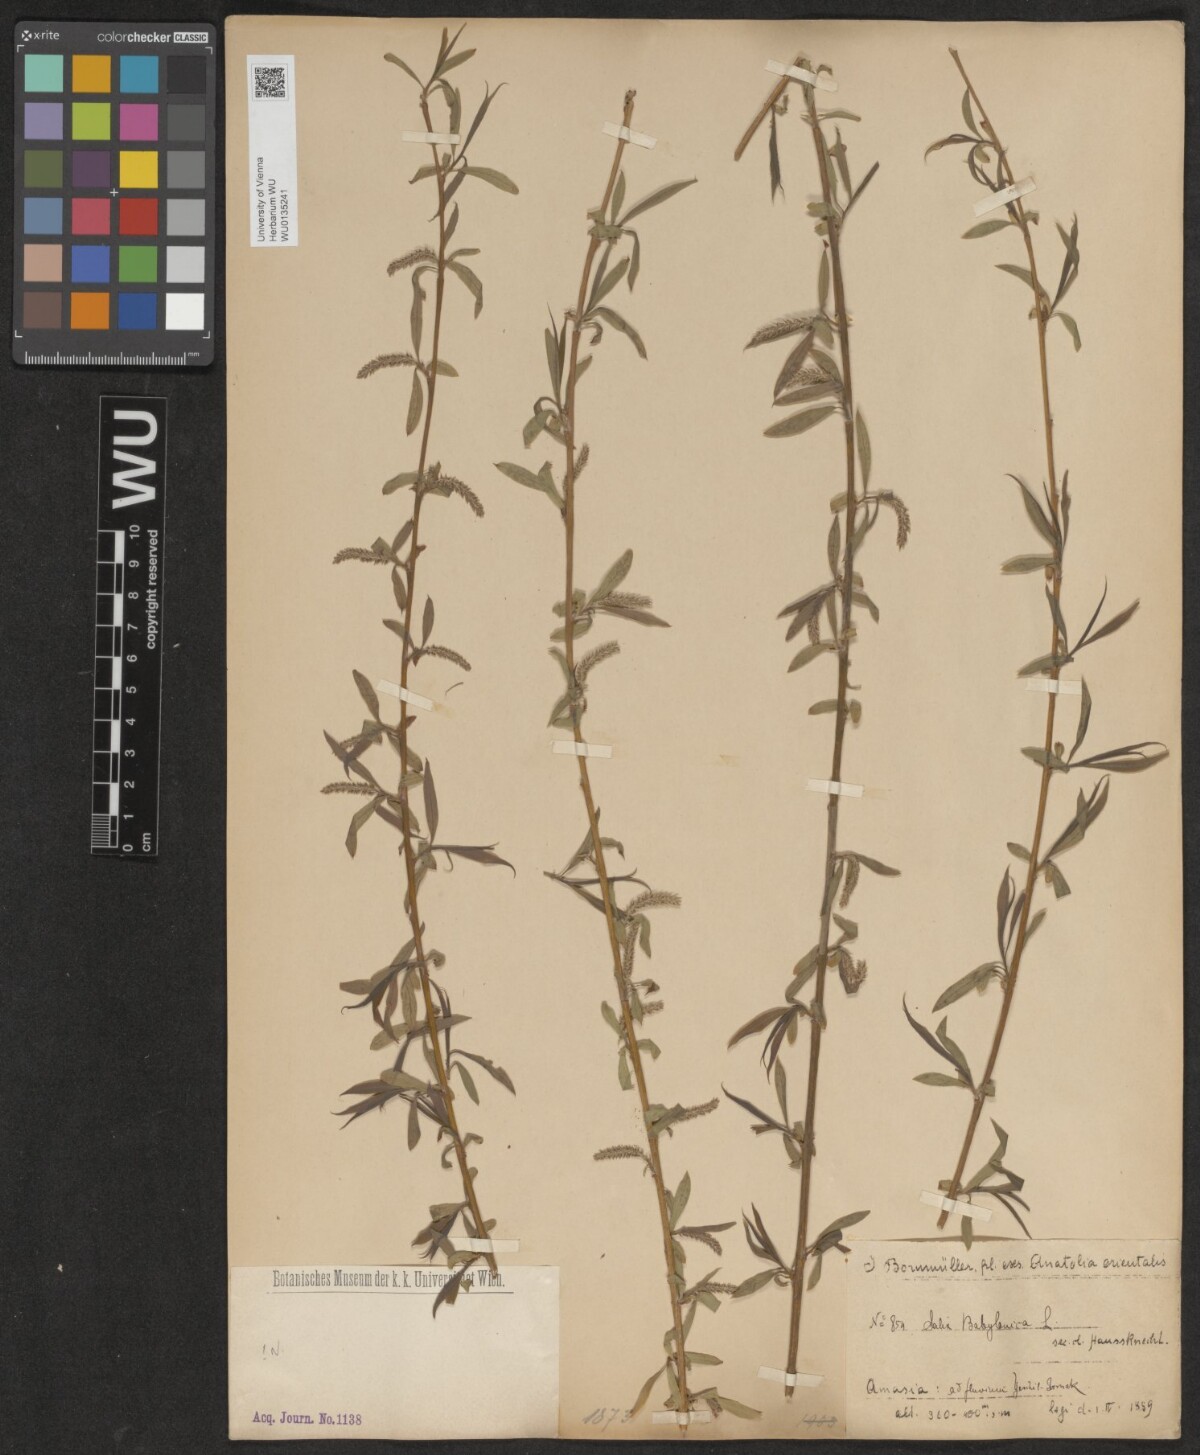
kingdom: Plantae
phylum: Tracheophyta
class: Magnoliopsida
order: Malpighiales
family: Salicaceae
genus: Salix
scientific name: Salix babylonica
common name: Weeping willow
